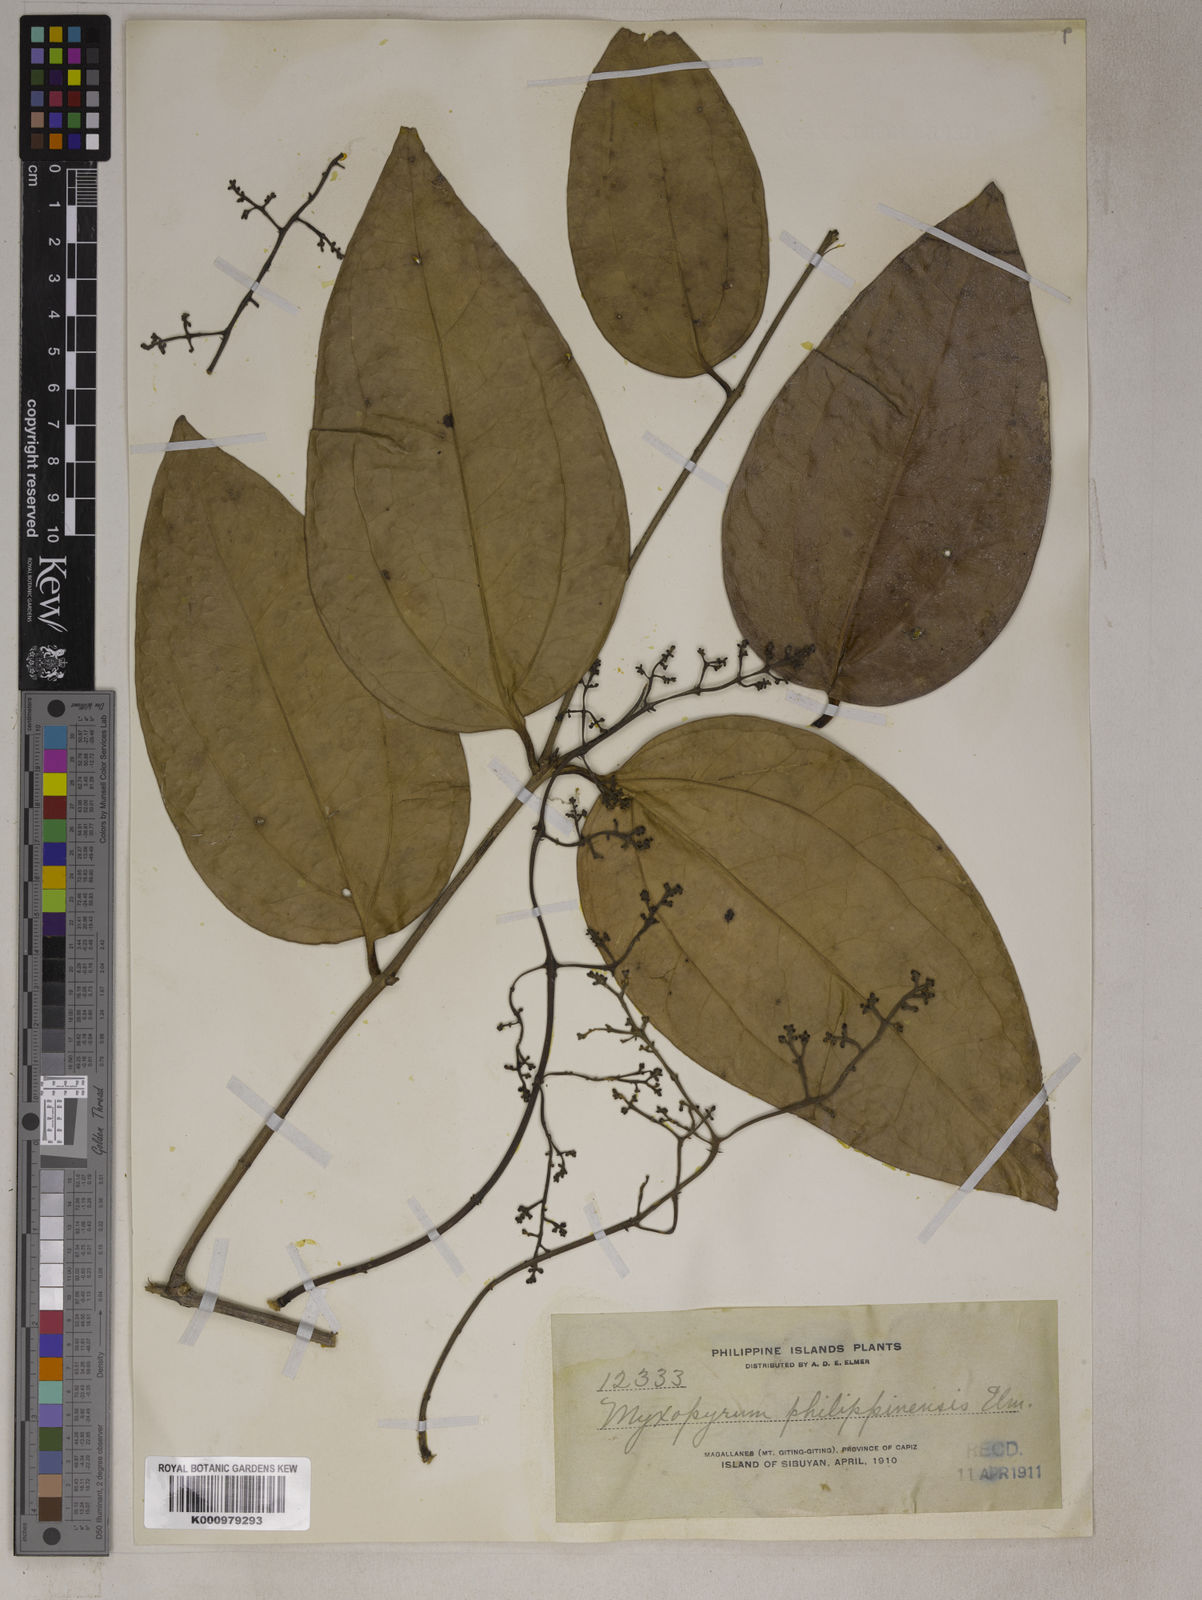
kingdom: Plantae
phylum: Tracheophyta
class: Magnoliopsida
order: Lamiales
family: Oleaceae
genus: Myxopyrum
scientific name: Myxopyrum ovatum
